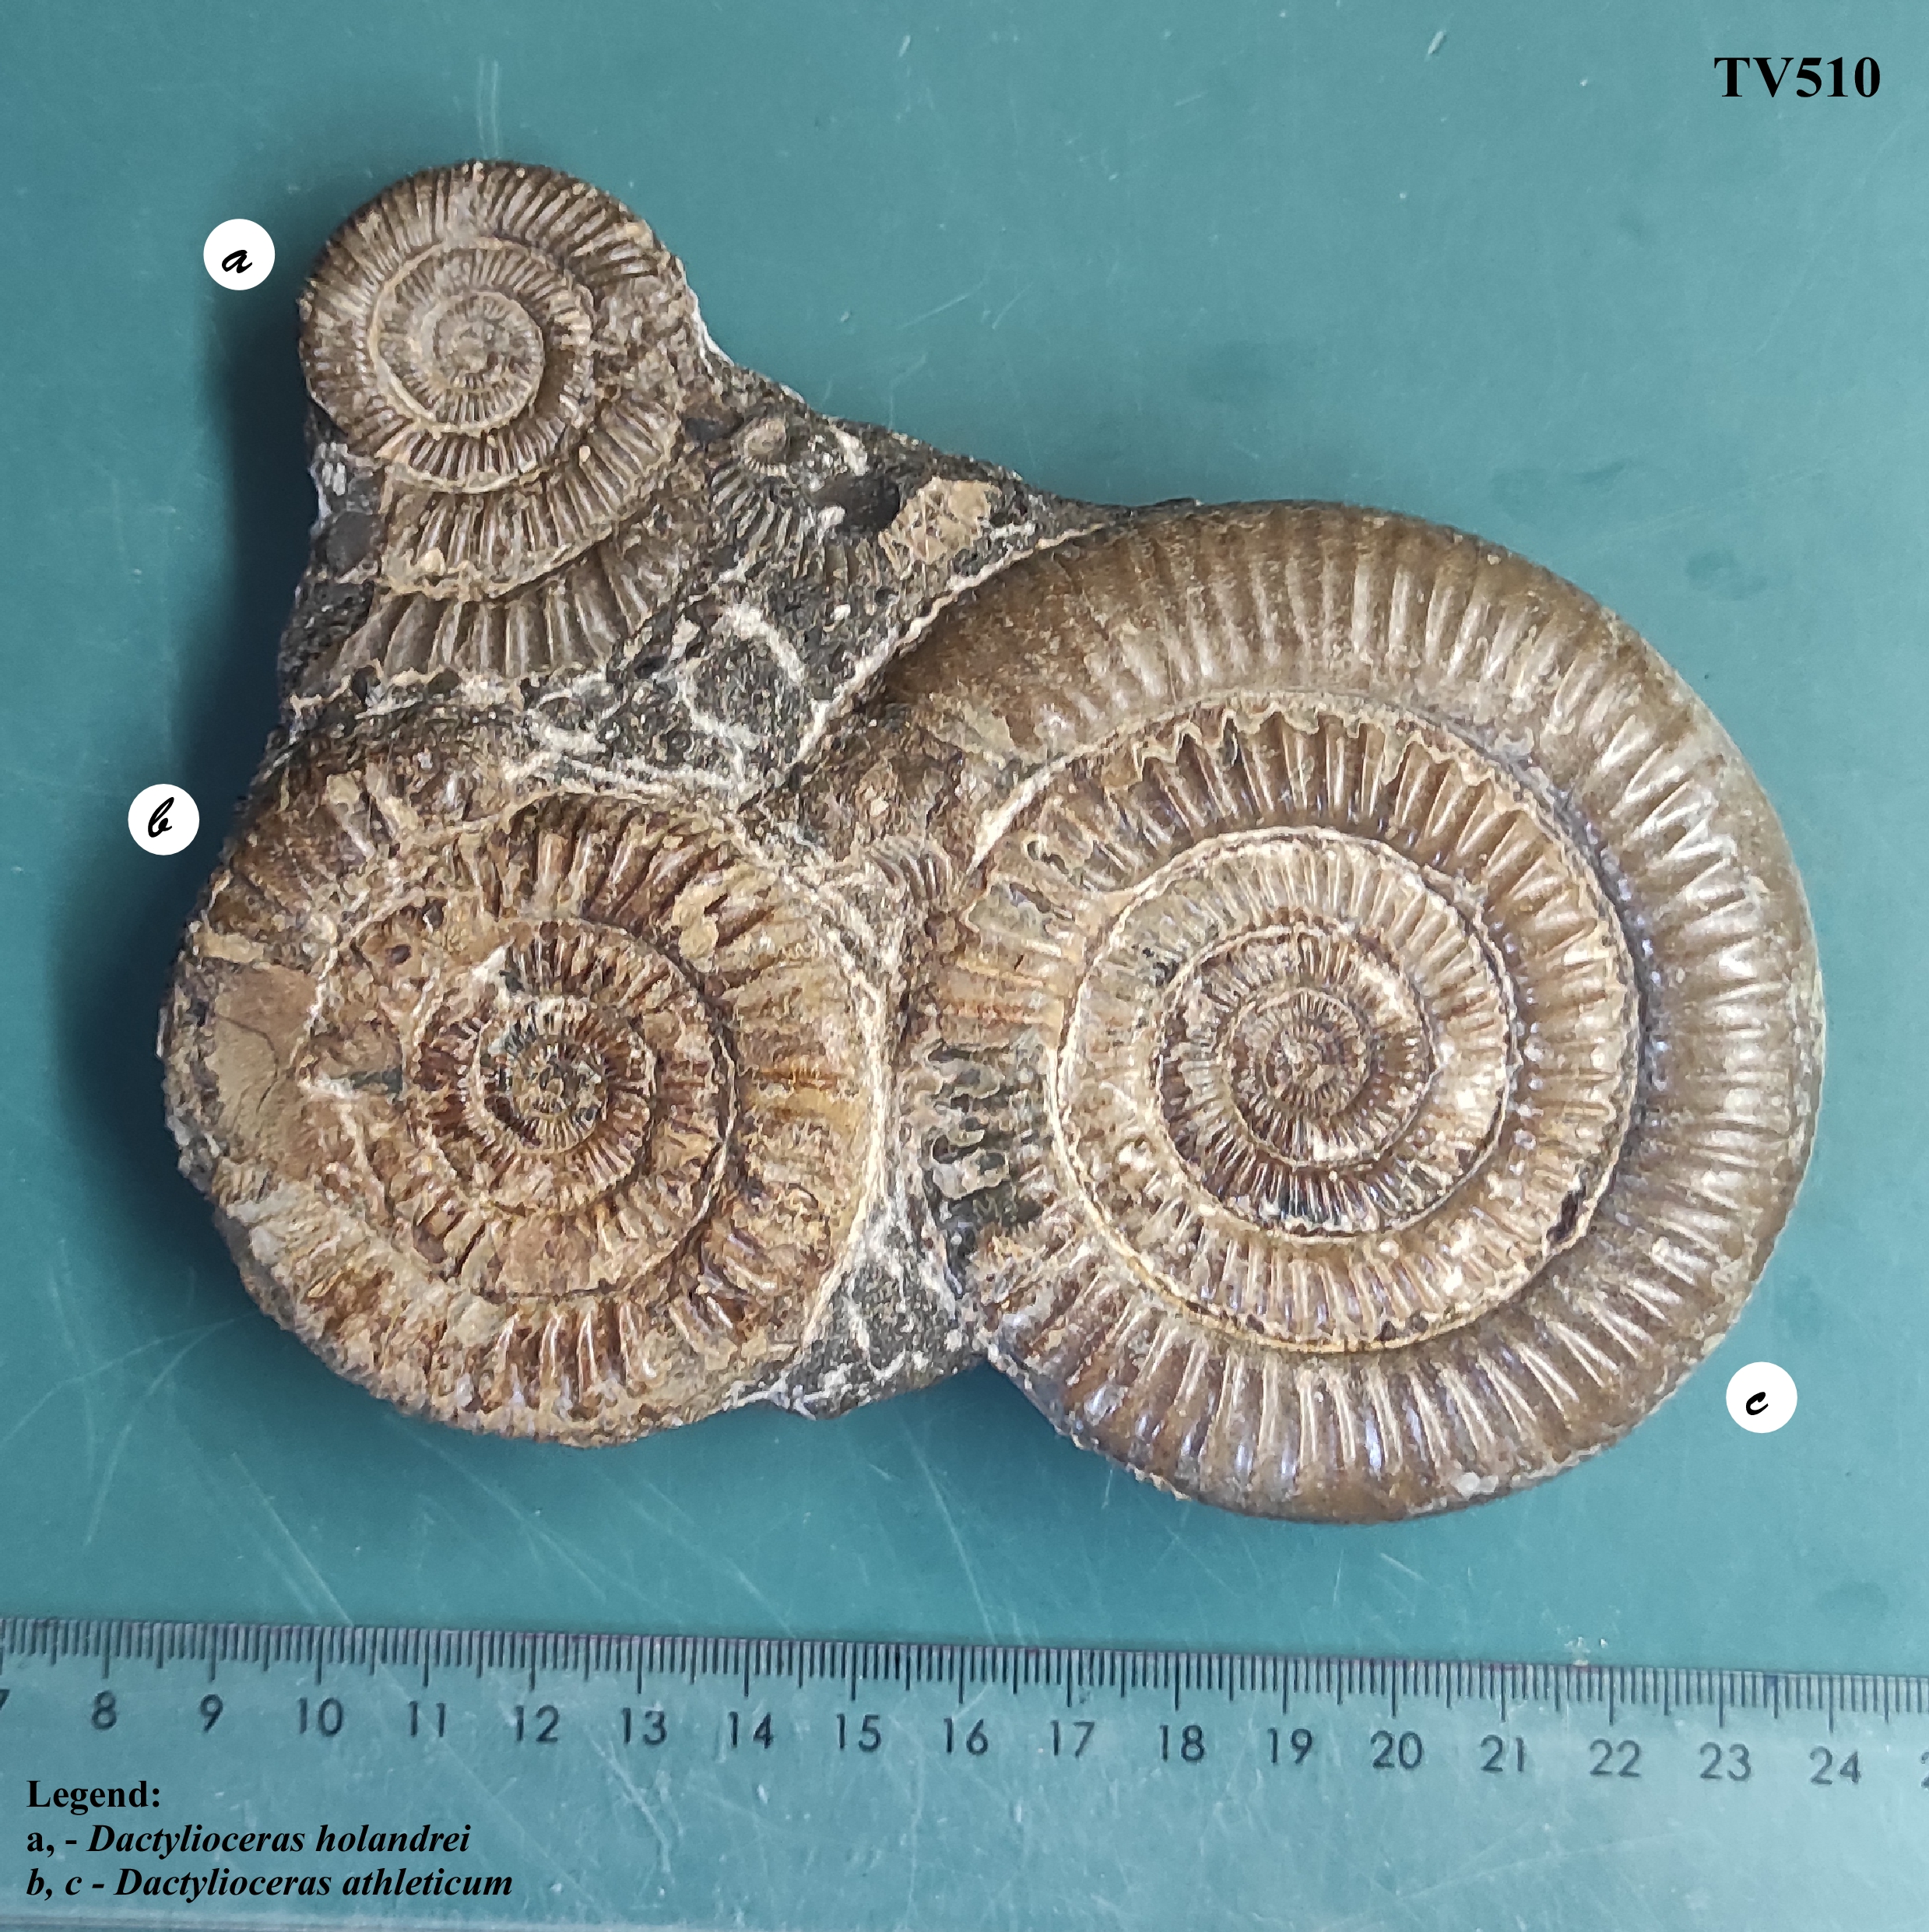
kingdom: Animalia
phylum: Mollusca
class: Cephalopoda
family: Dactylioceratidae
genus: Dactylioceras
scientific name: Dactylioceras athleticum
